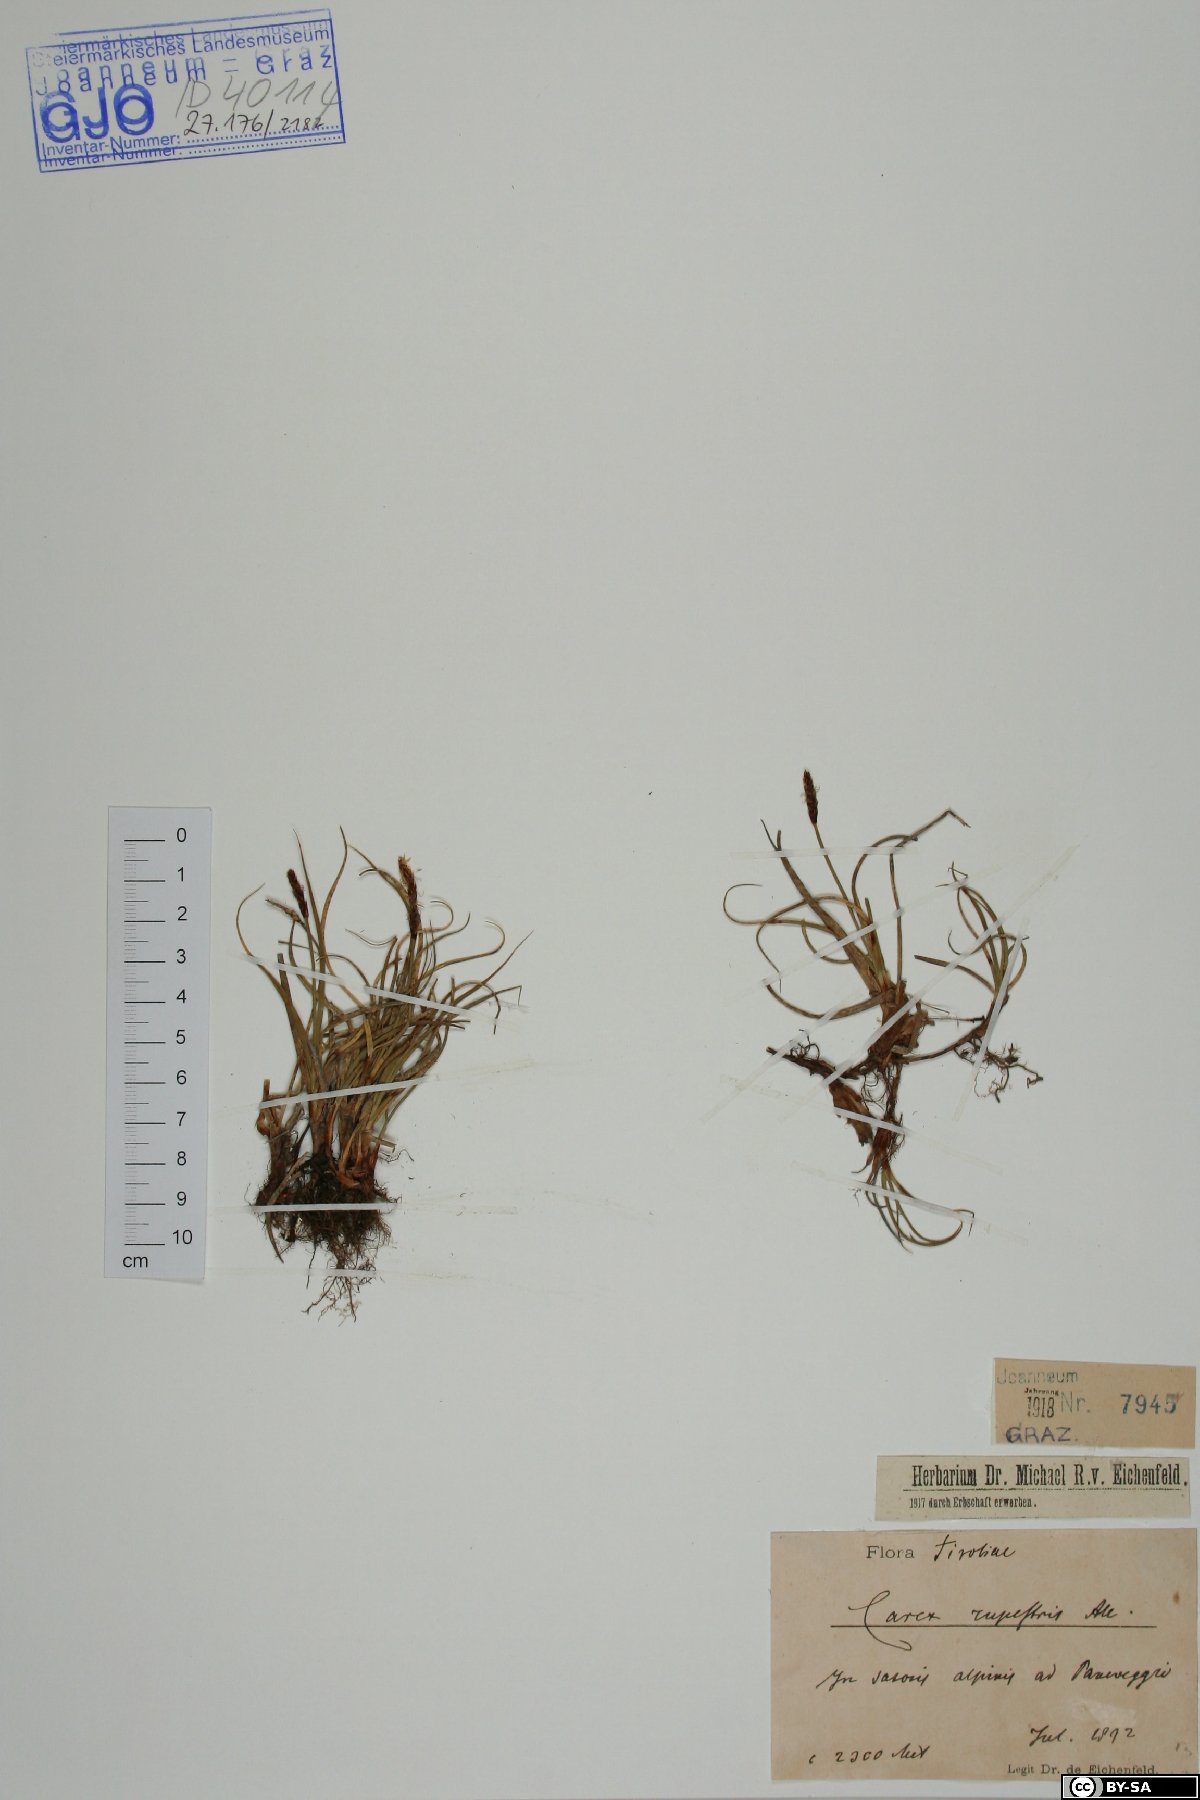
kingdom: Plantae
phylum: Tracheophyta
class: Liliopsida
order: Poales
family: Cyperaceae
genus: Carex
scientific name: Carex rupestris
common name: Rock sedge
